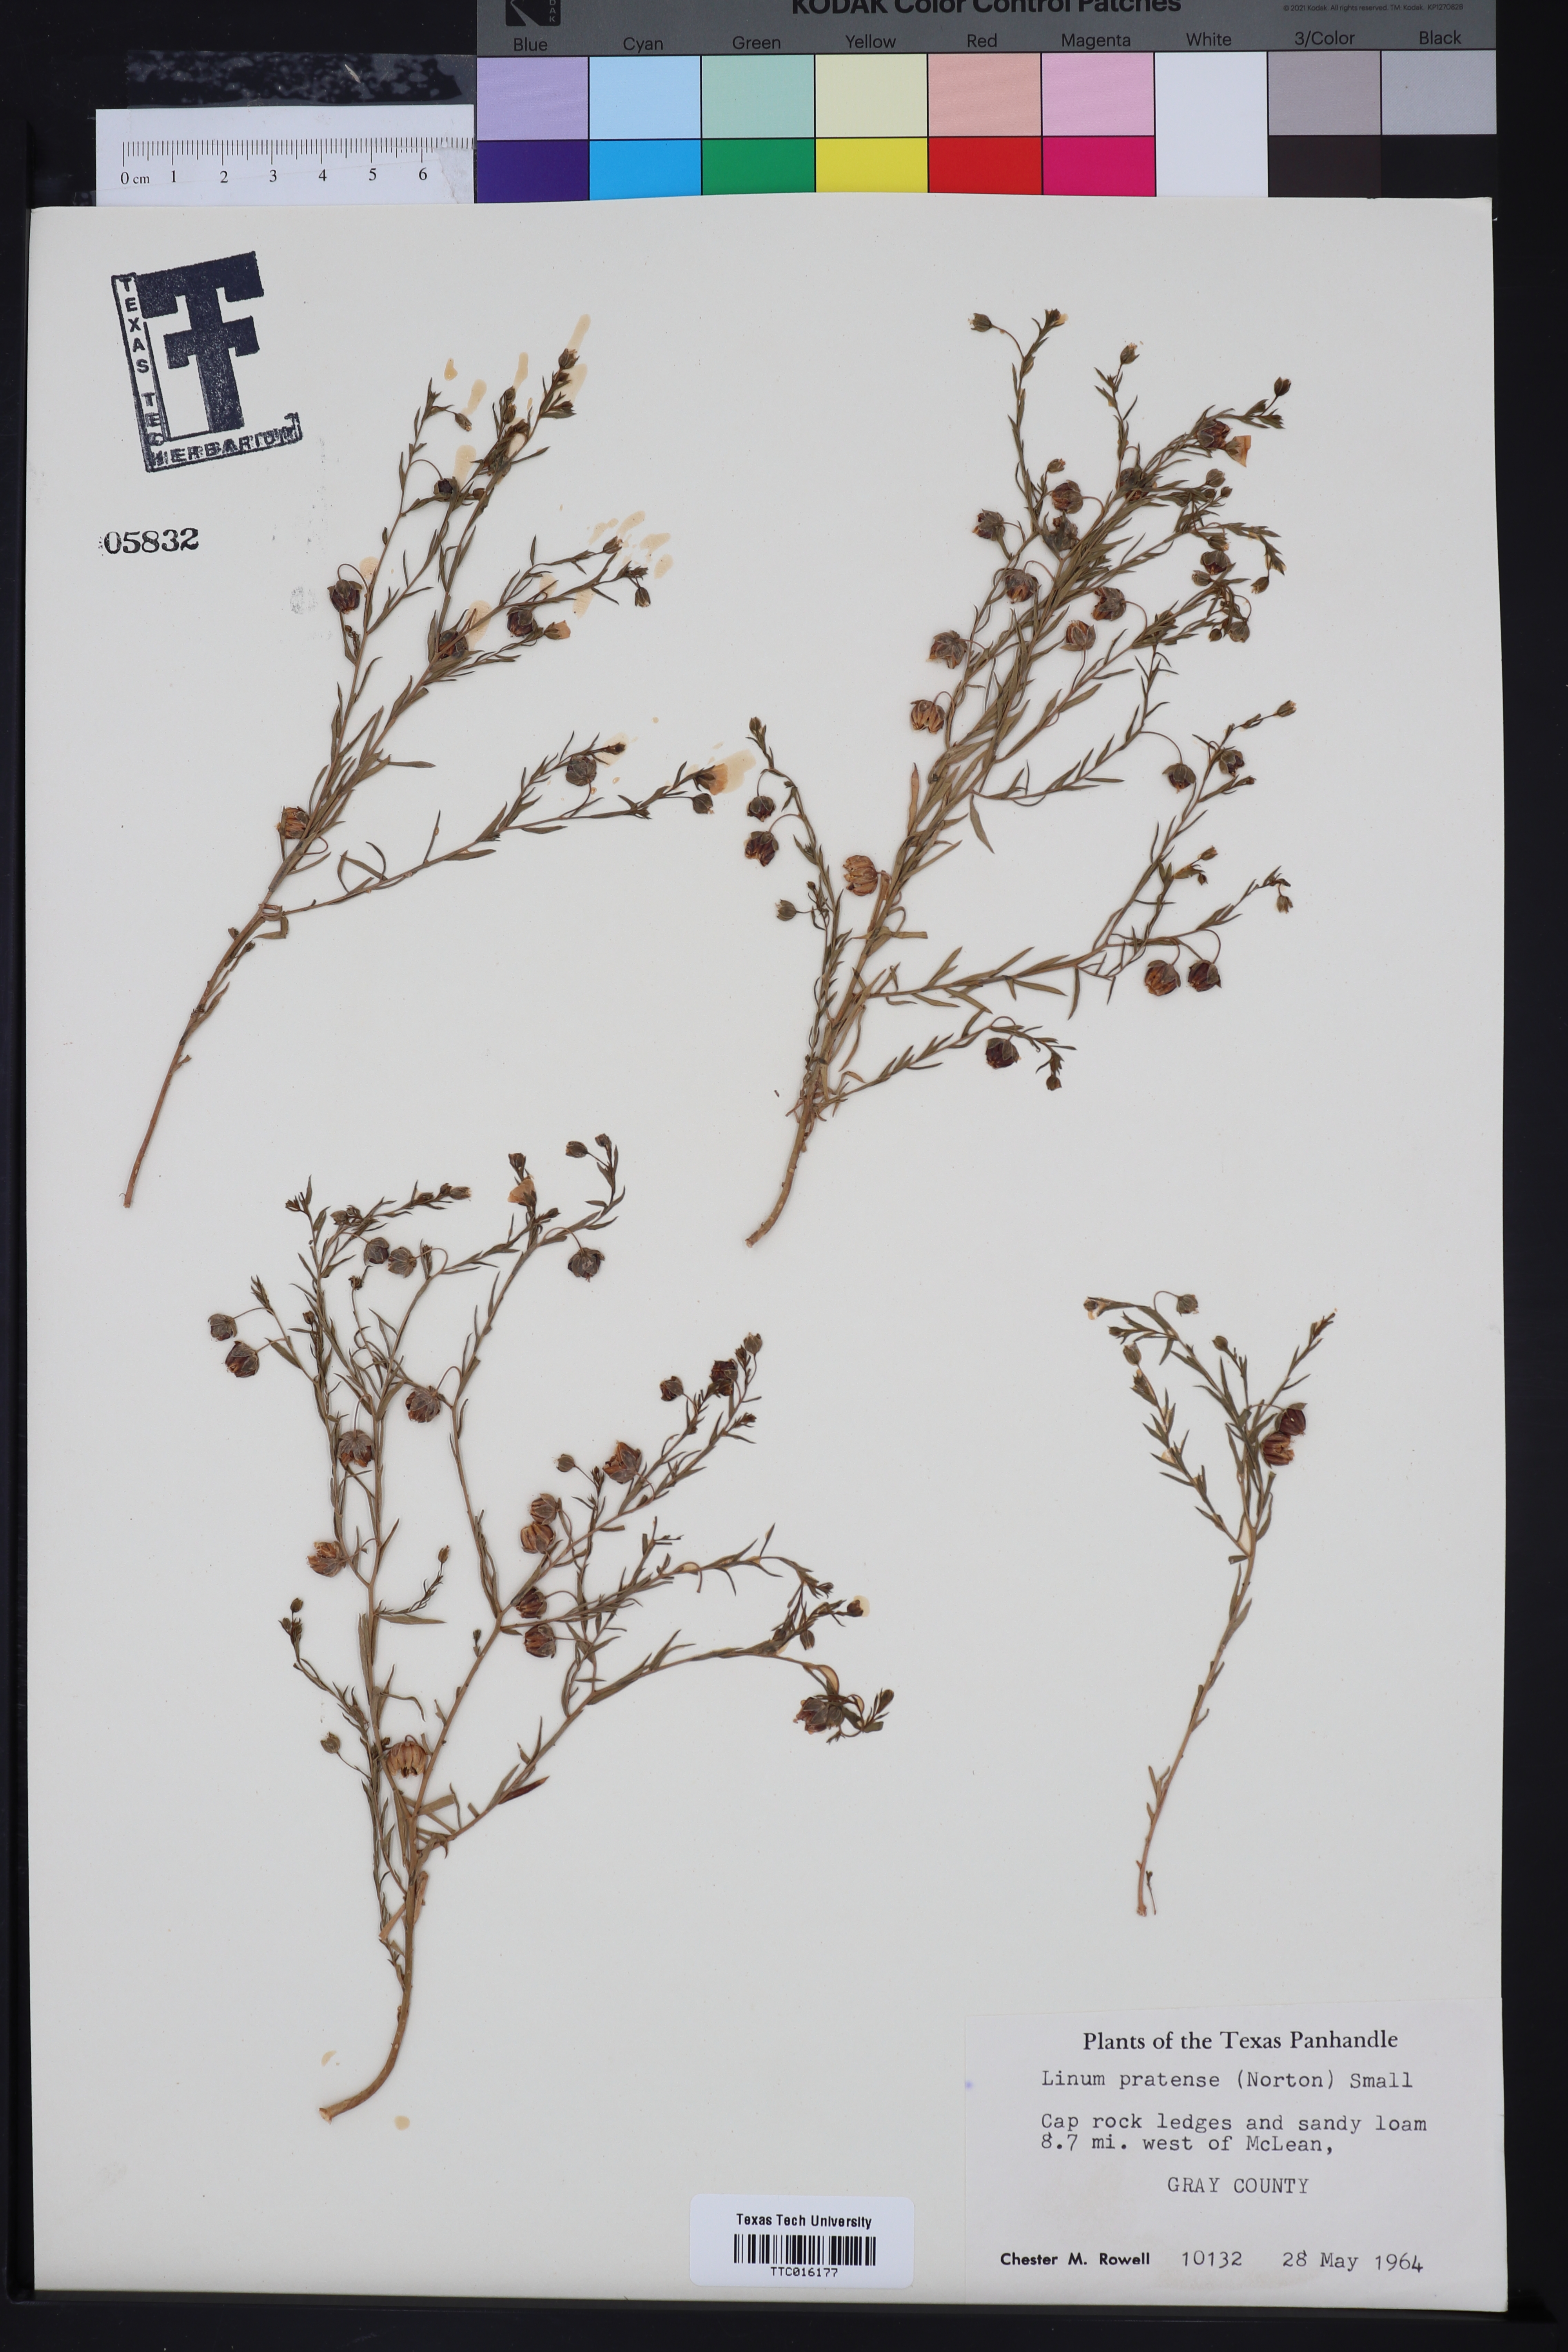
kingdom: Plantae
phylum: Tracheophyta
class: Magnoliopsida
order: Malpighiales
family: Linaceae
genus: Linum
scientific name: Linum pratense
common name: Norton's flax
